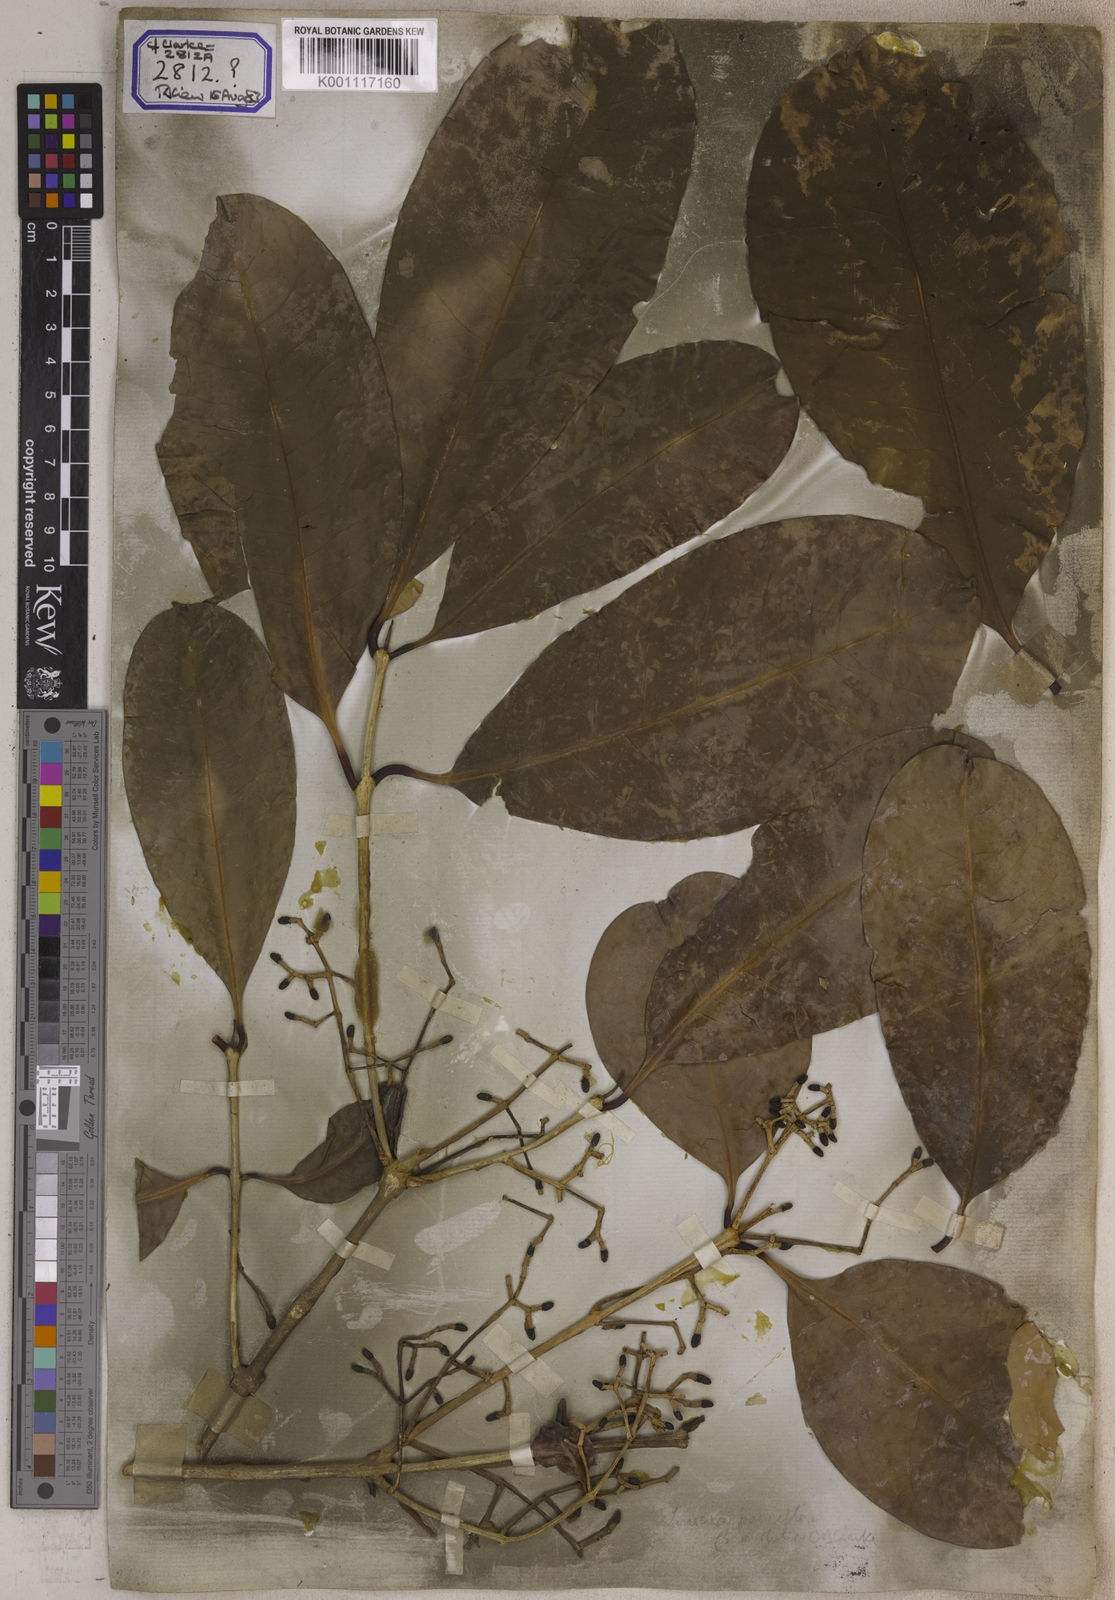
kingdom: Plantae
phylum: Tracheophyta
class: Magnoliopsida
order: Lamiales
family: Oleaceae
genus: Olea
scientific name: Olea
